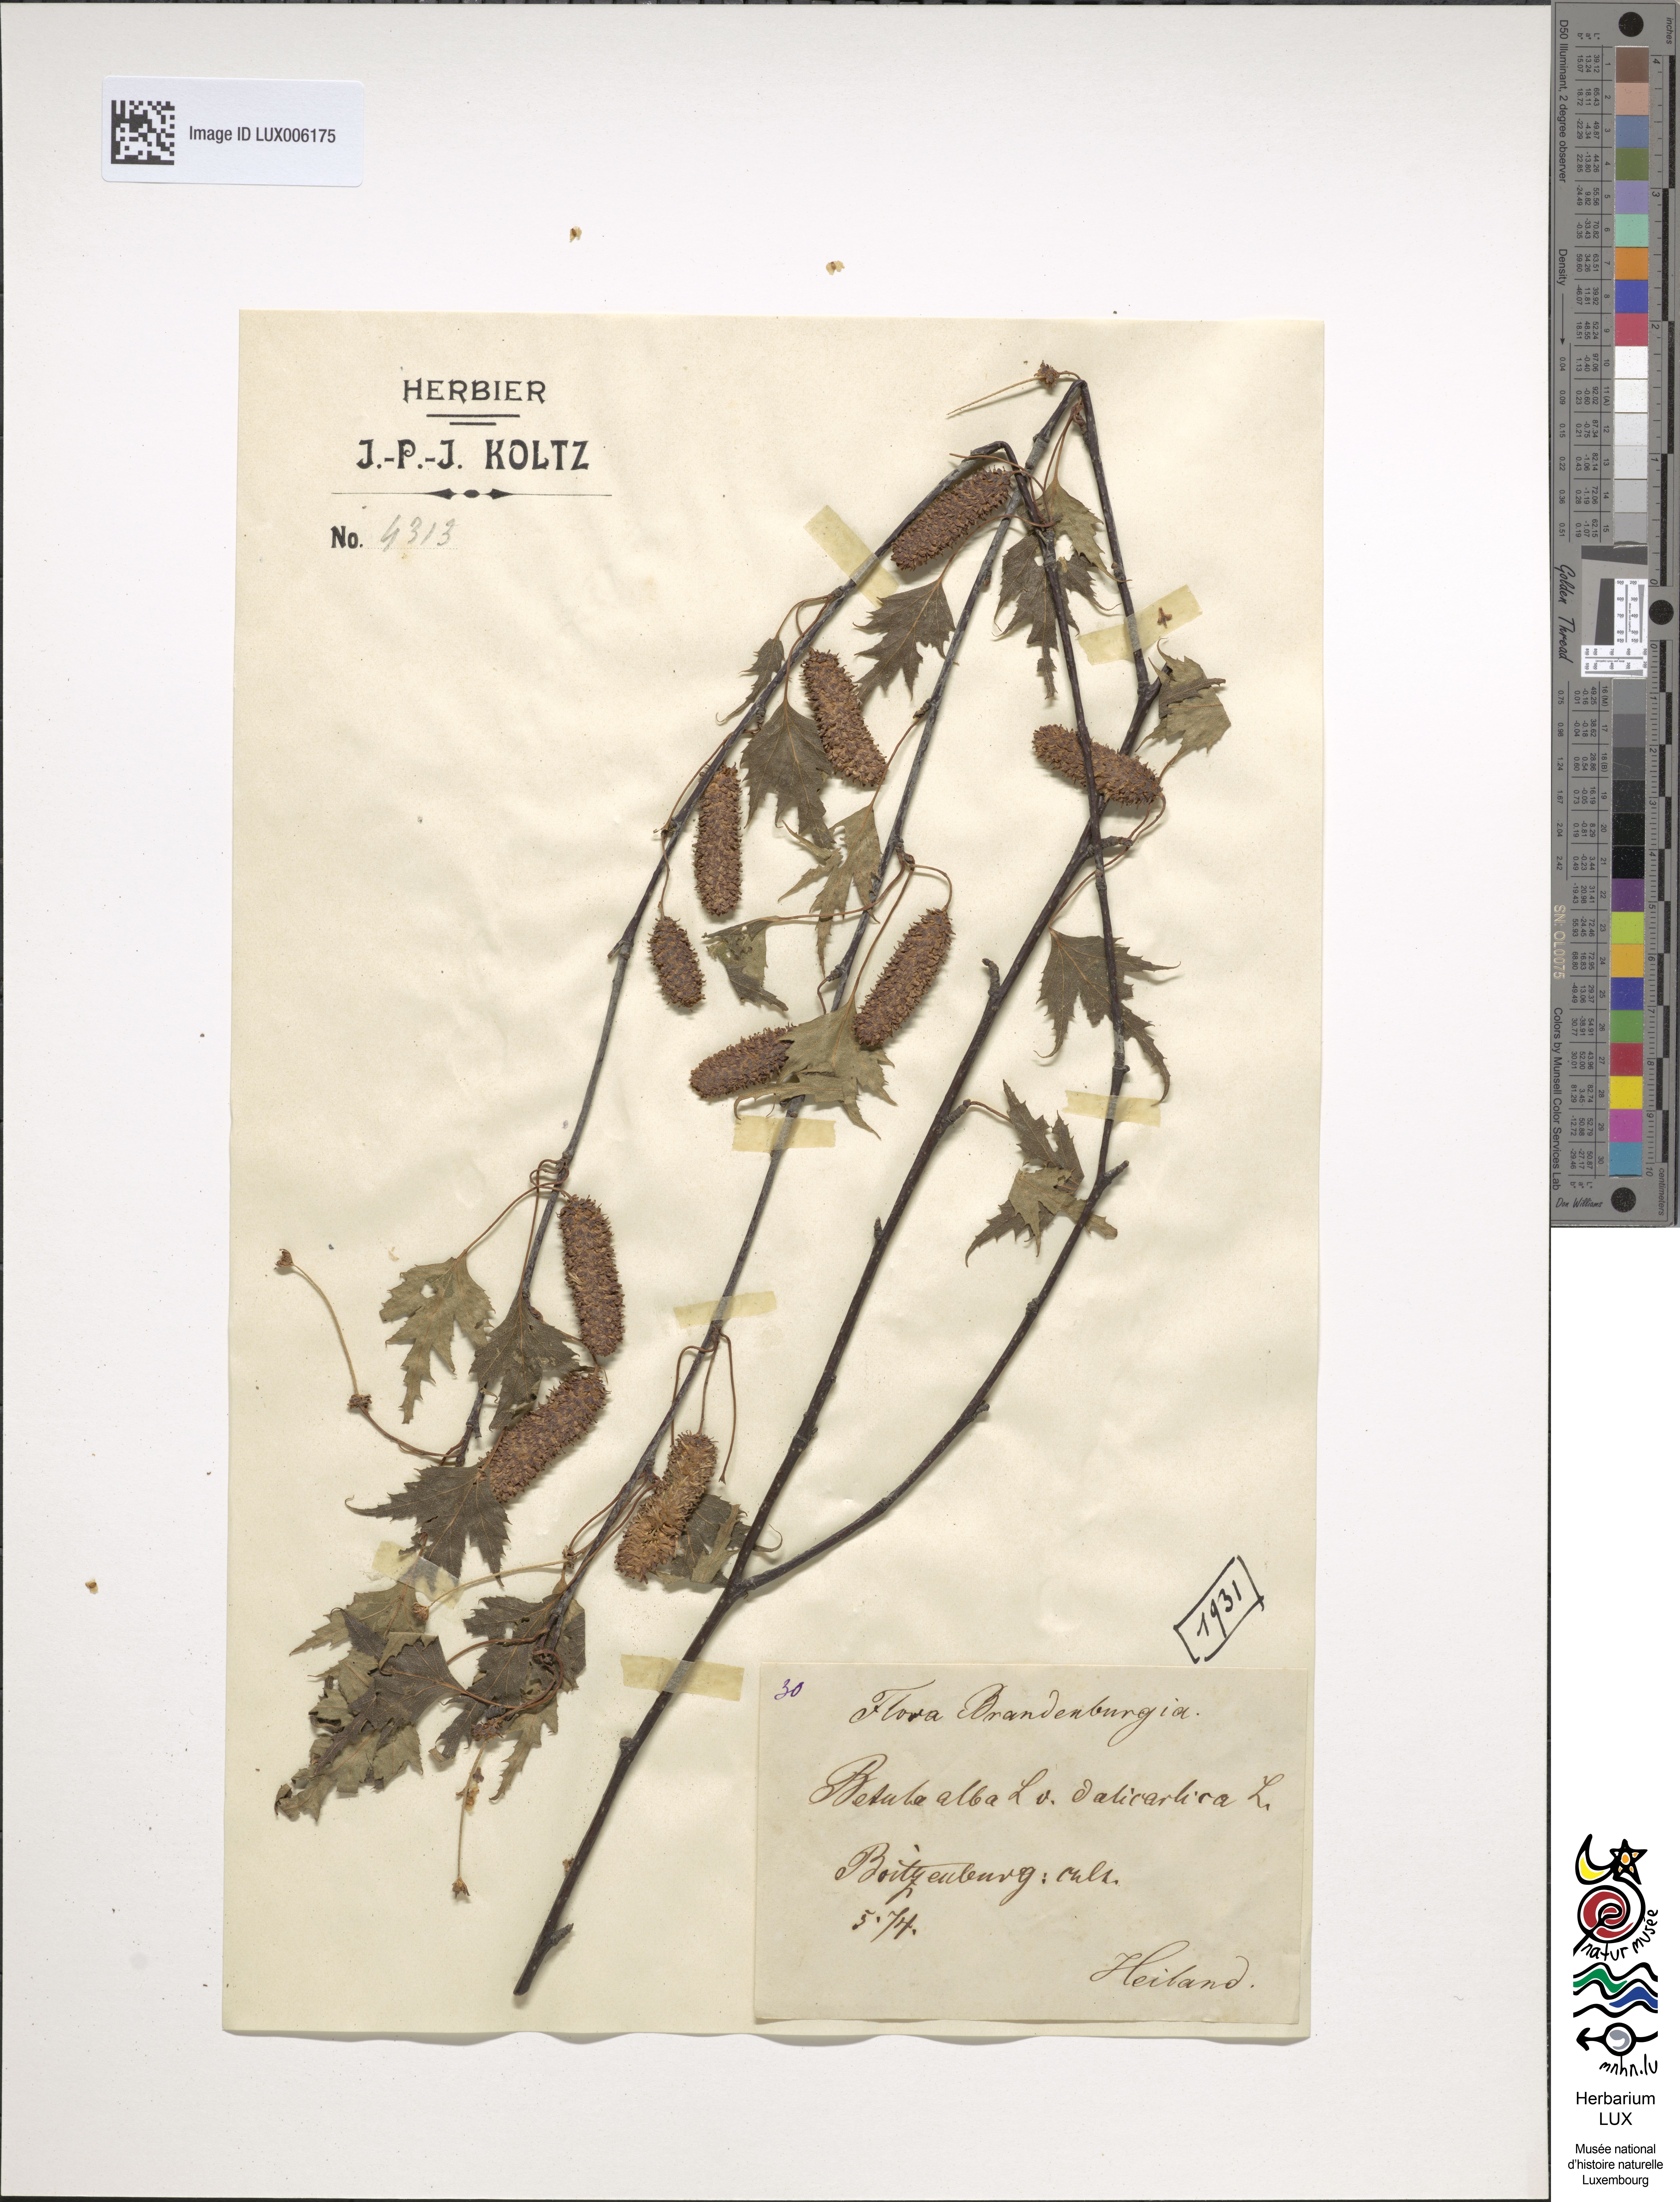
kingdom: Plantae
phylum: Tracheophyta
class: Magnoliopsida
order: Fagales
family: Betulaceae
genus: Betula
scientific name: Betula pendula
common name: Silver birch
